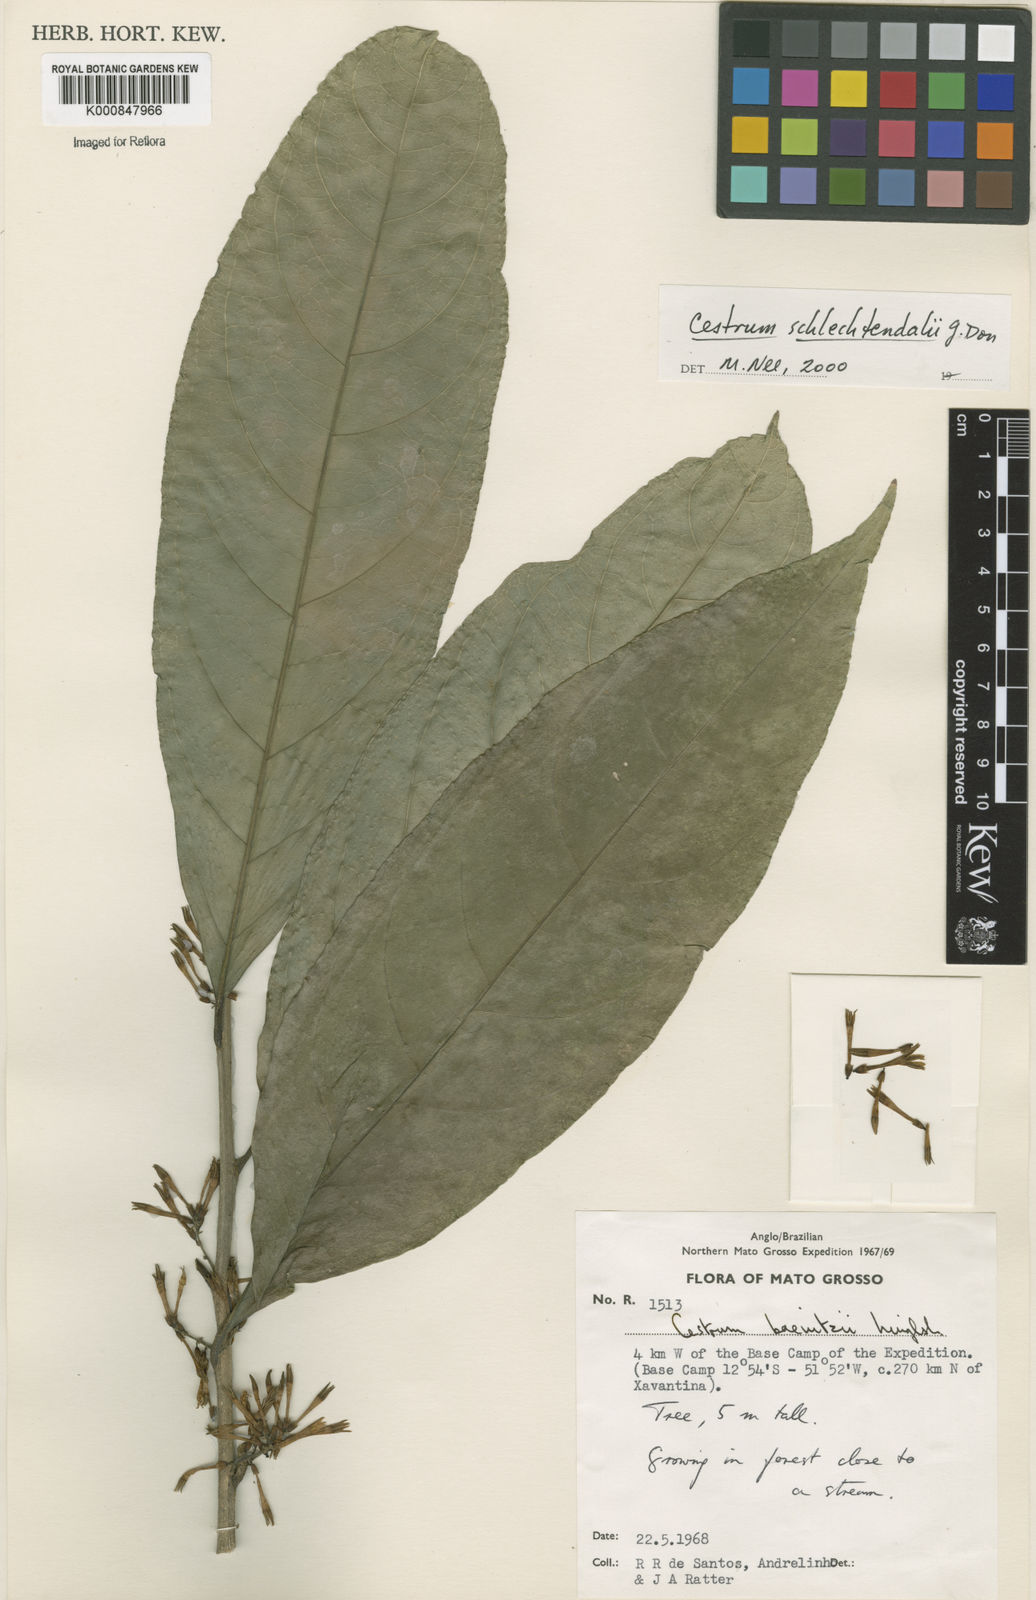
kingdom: Plantae
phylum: Tracheophyta
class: Magnoliopsida
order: Solanales
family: Solanaceae
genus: Cestrum
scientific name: Cestrum schlechtendalii
